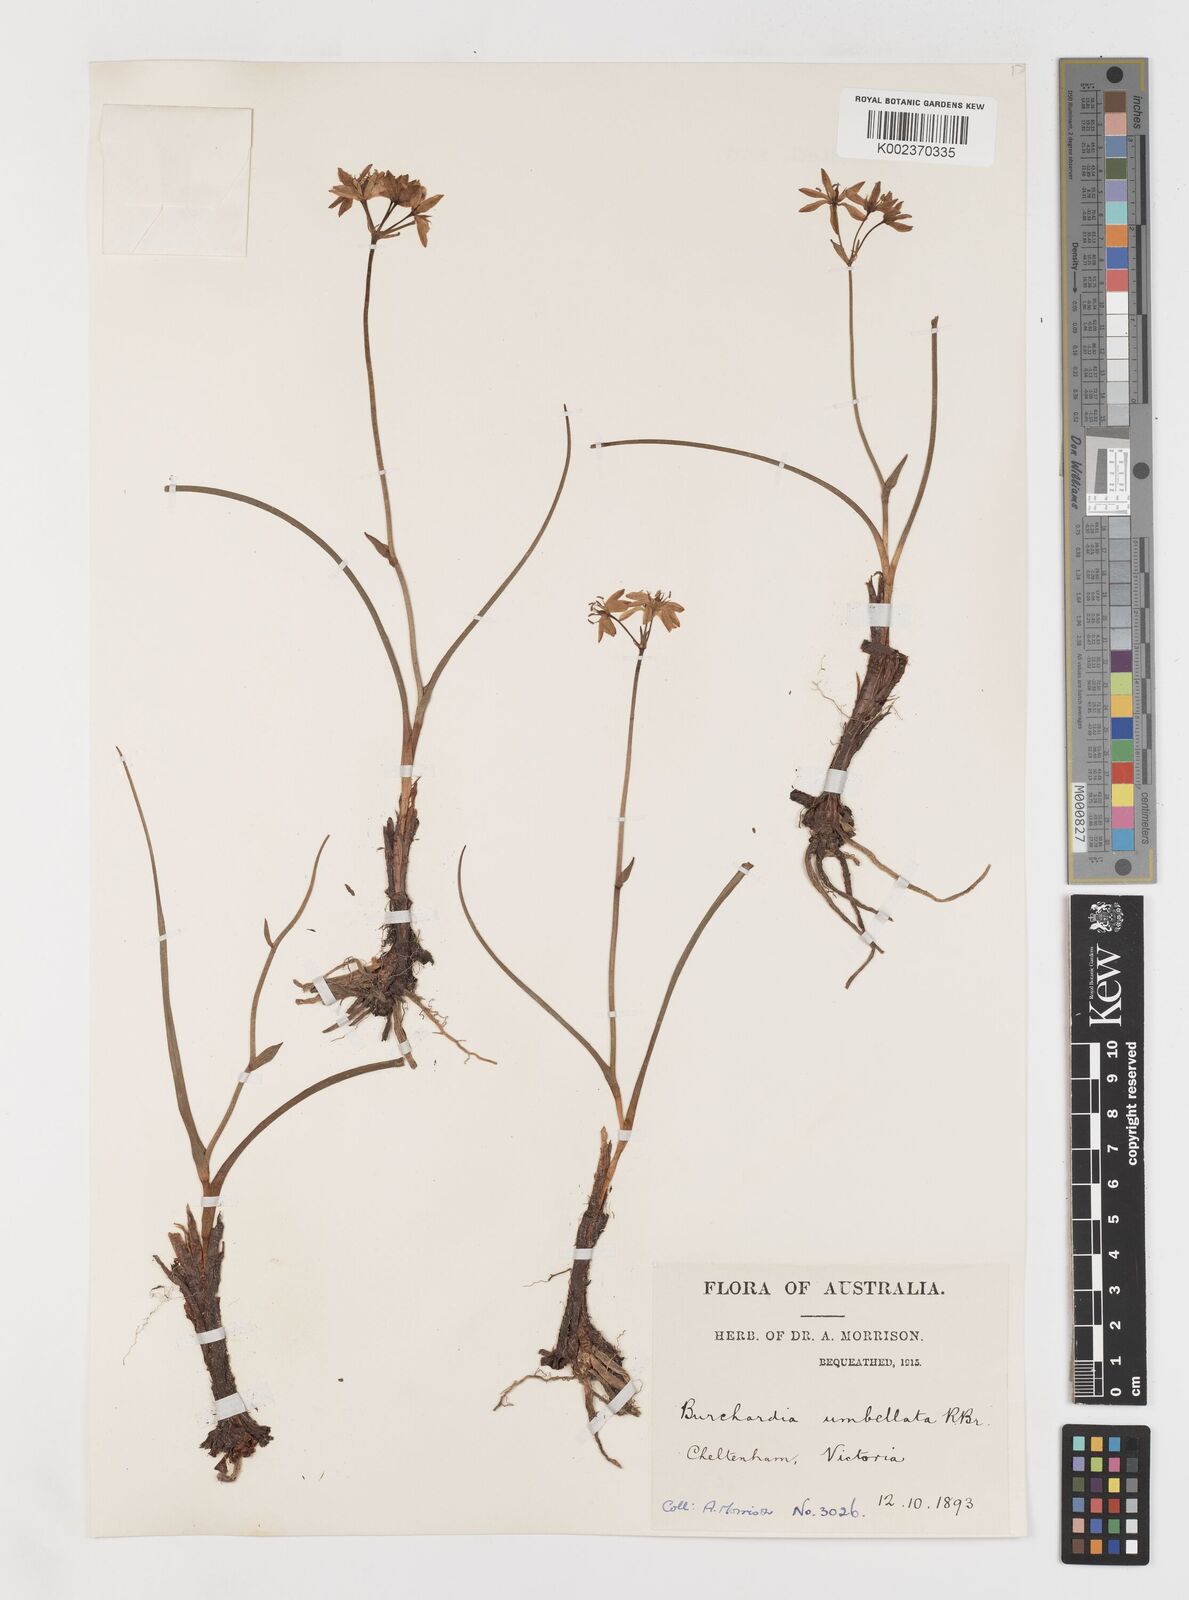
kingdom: Plantae
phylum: Tracheophyta
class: Liliopsida
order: Liliales
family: Colchicaceae
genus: Burchardia
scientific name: Burchardia umbellata
